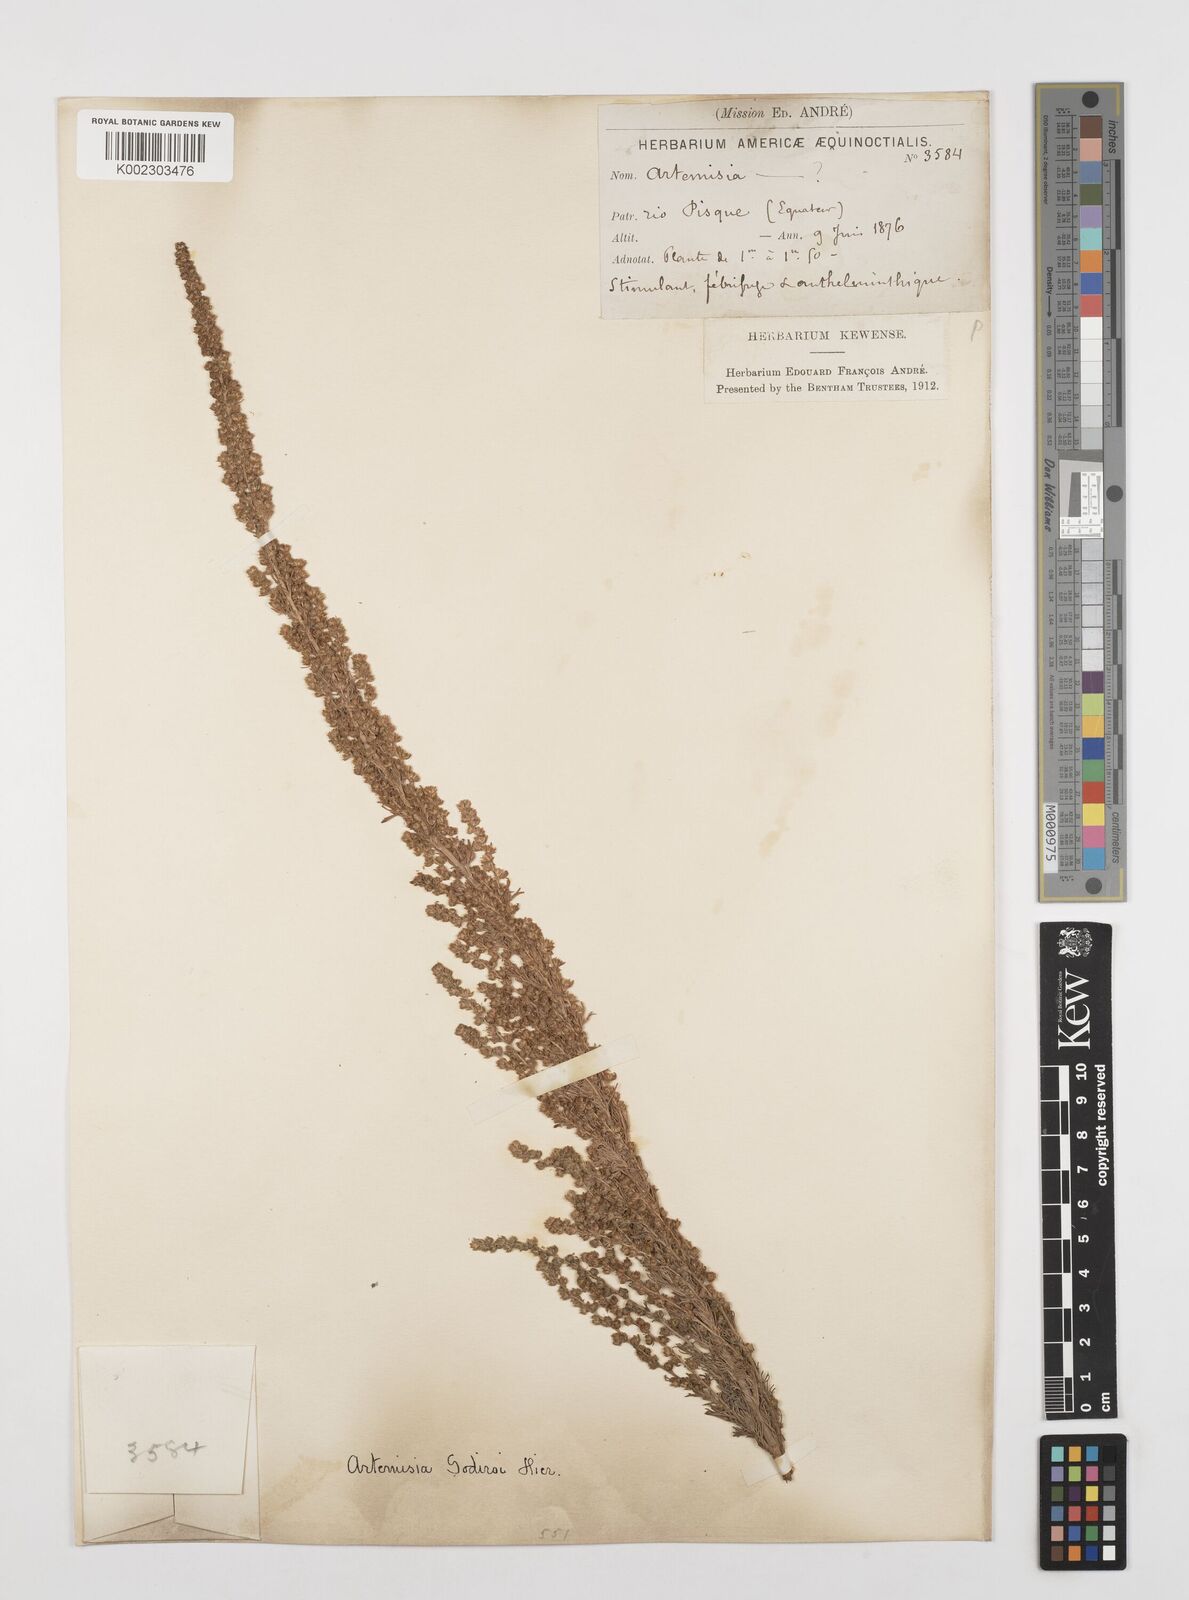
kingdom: Plantae
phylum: Tracheophyta
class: Magnoliopsida
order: Asterales
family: Asteraceae
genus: Artemisia
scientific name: Artemisia sodiroi
